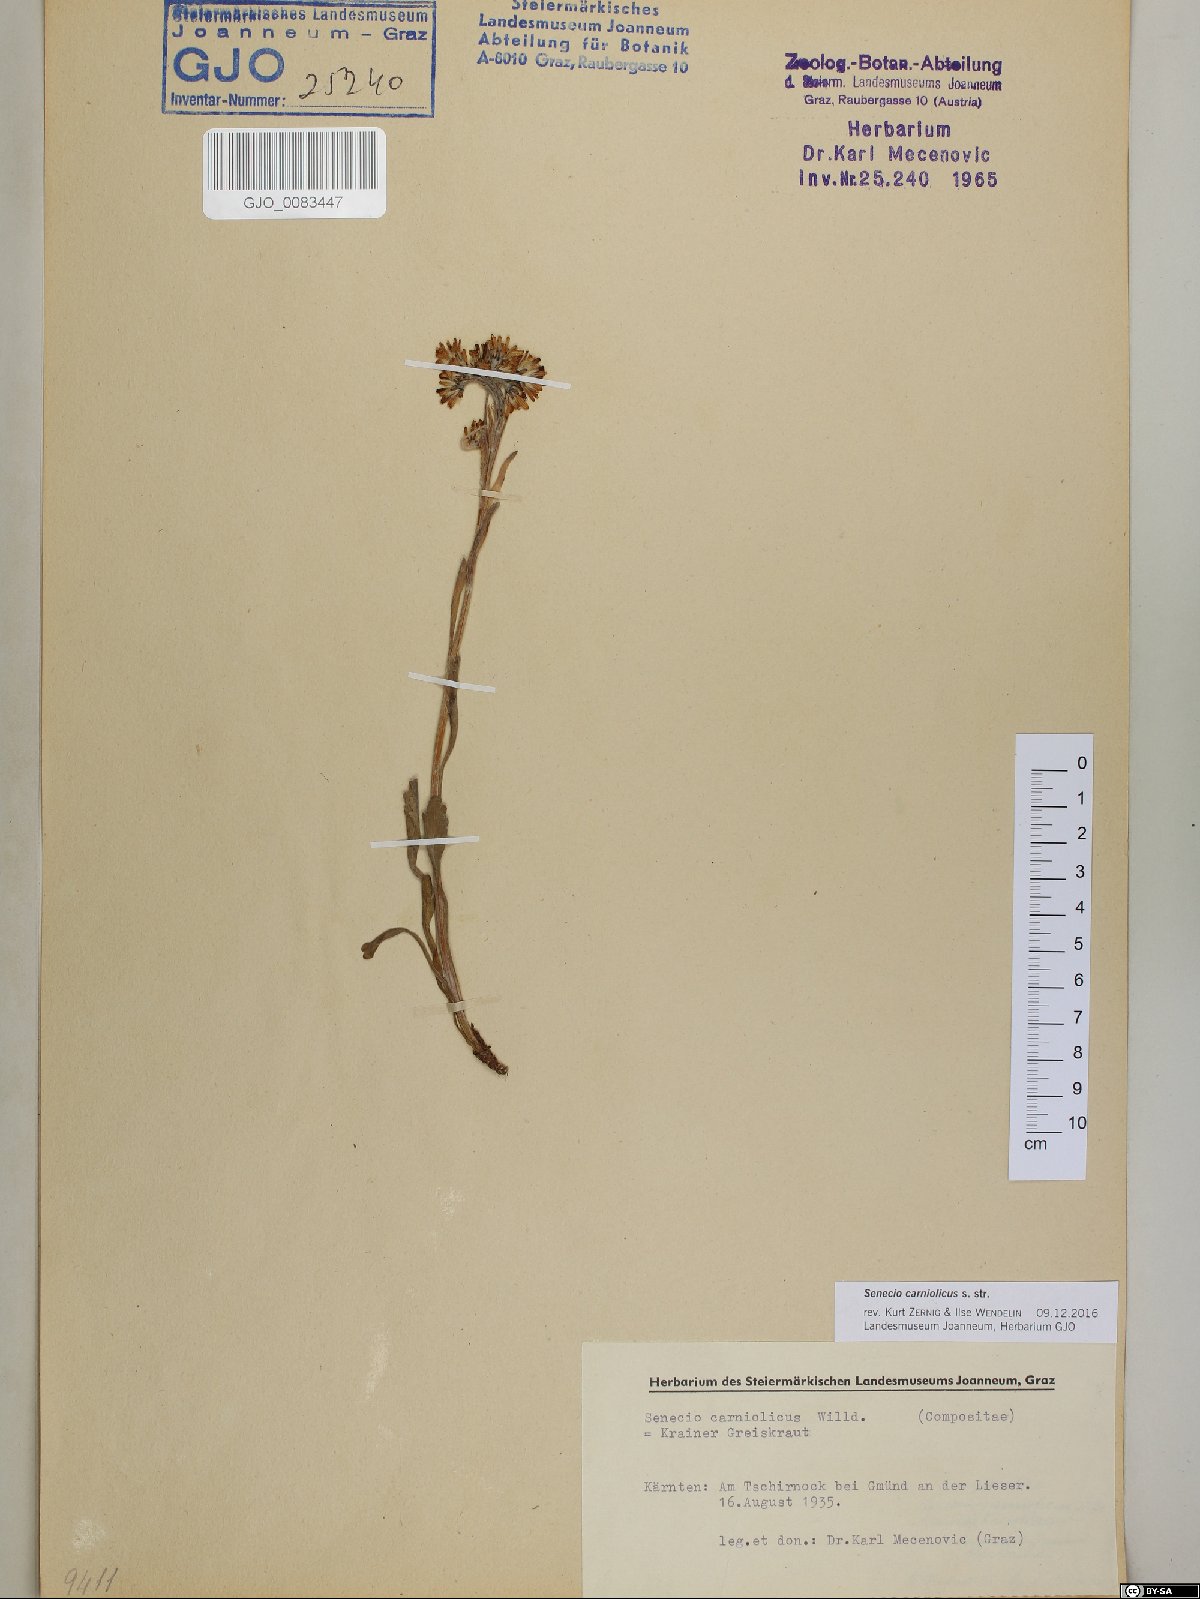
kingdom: Plantae
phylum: Tracheophyta
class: Magnoliopsida
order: Asterales
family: Asteraceae
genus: Jacobaea
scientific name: Jacobaea carniolica
